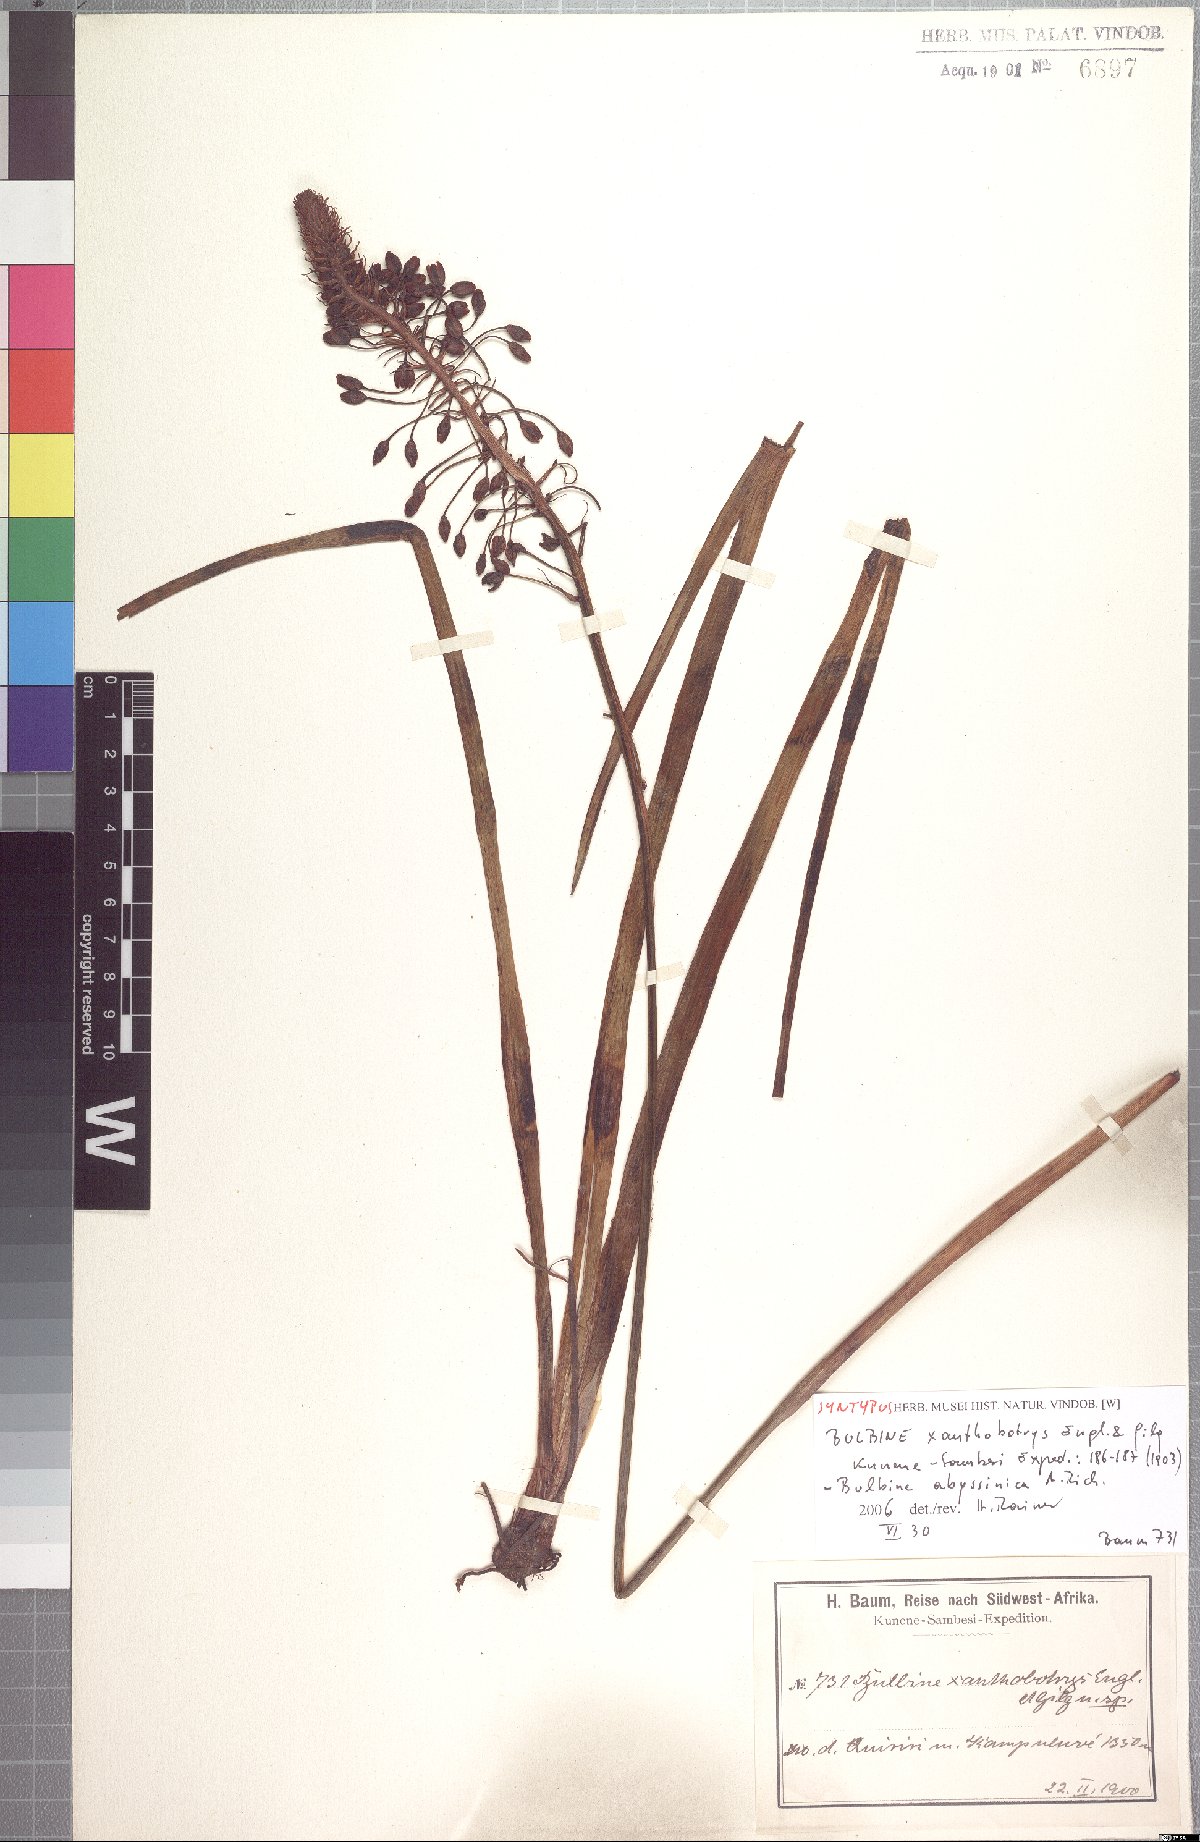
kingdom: Plantae
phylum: Tracheophyta
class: Liliopsida
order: Asparagales
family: Asphodelaceae
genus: Bulbine
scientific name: Bulbine abyssinica
